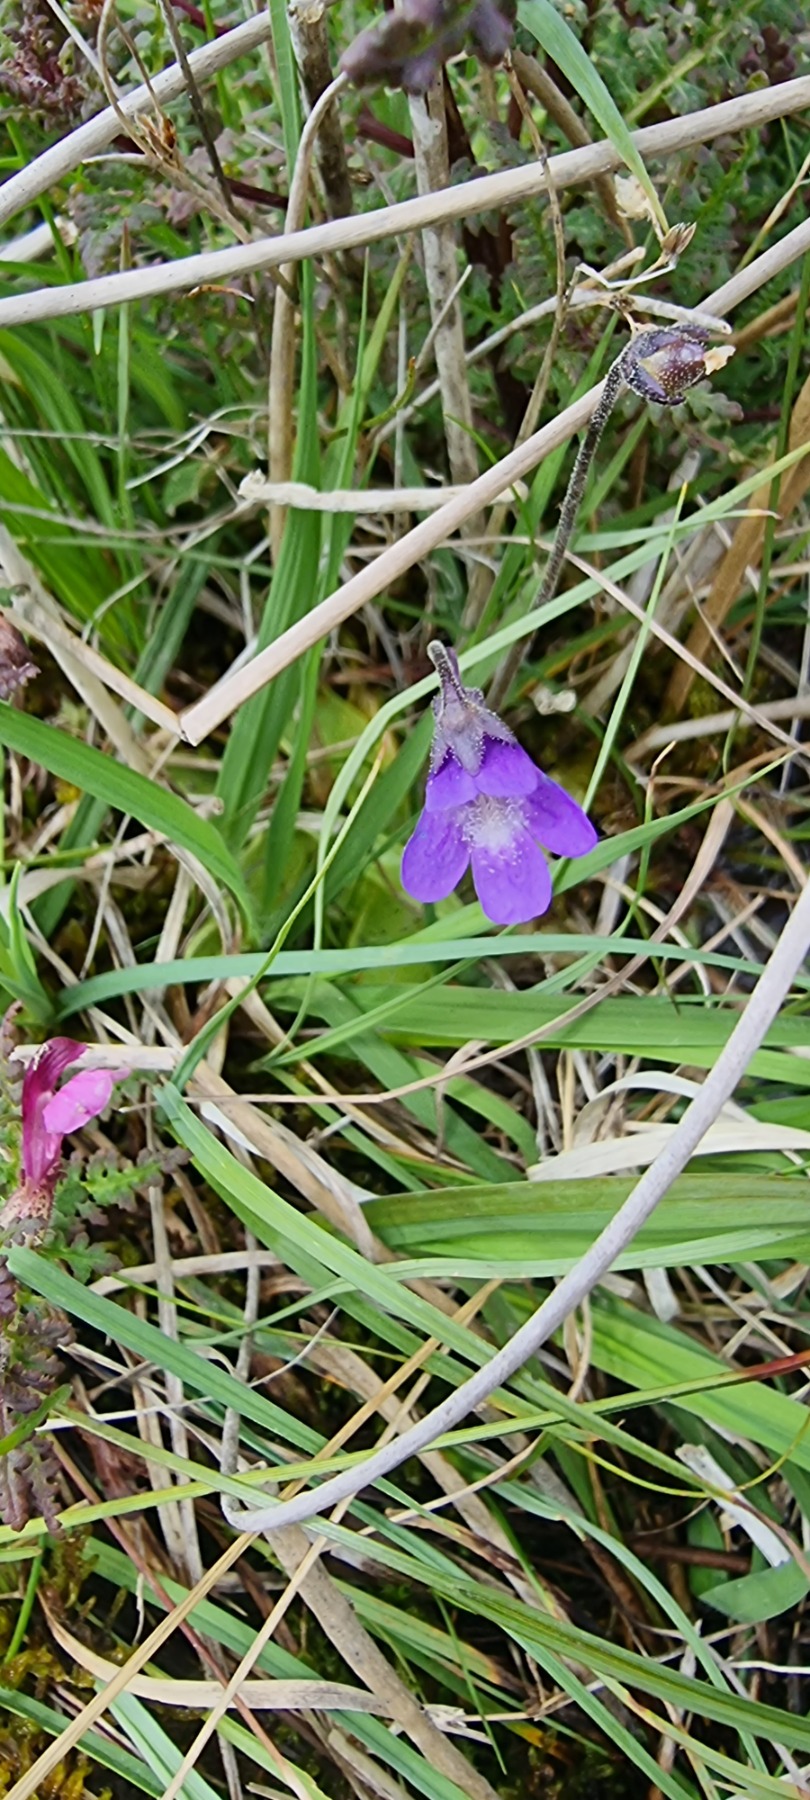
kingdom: Plantae
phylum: Tracheophyta
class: Magnoliopsida
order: Lamiales
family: Lentibulariaceae
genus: Pinguicula
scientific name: Pinguicula vulgaris
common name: Vibefedt
